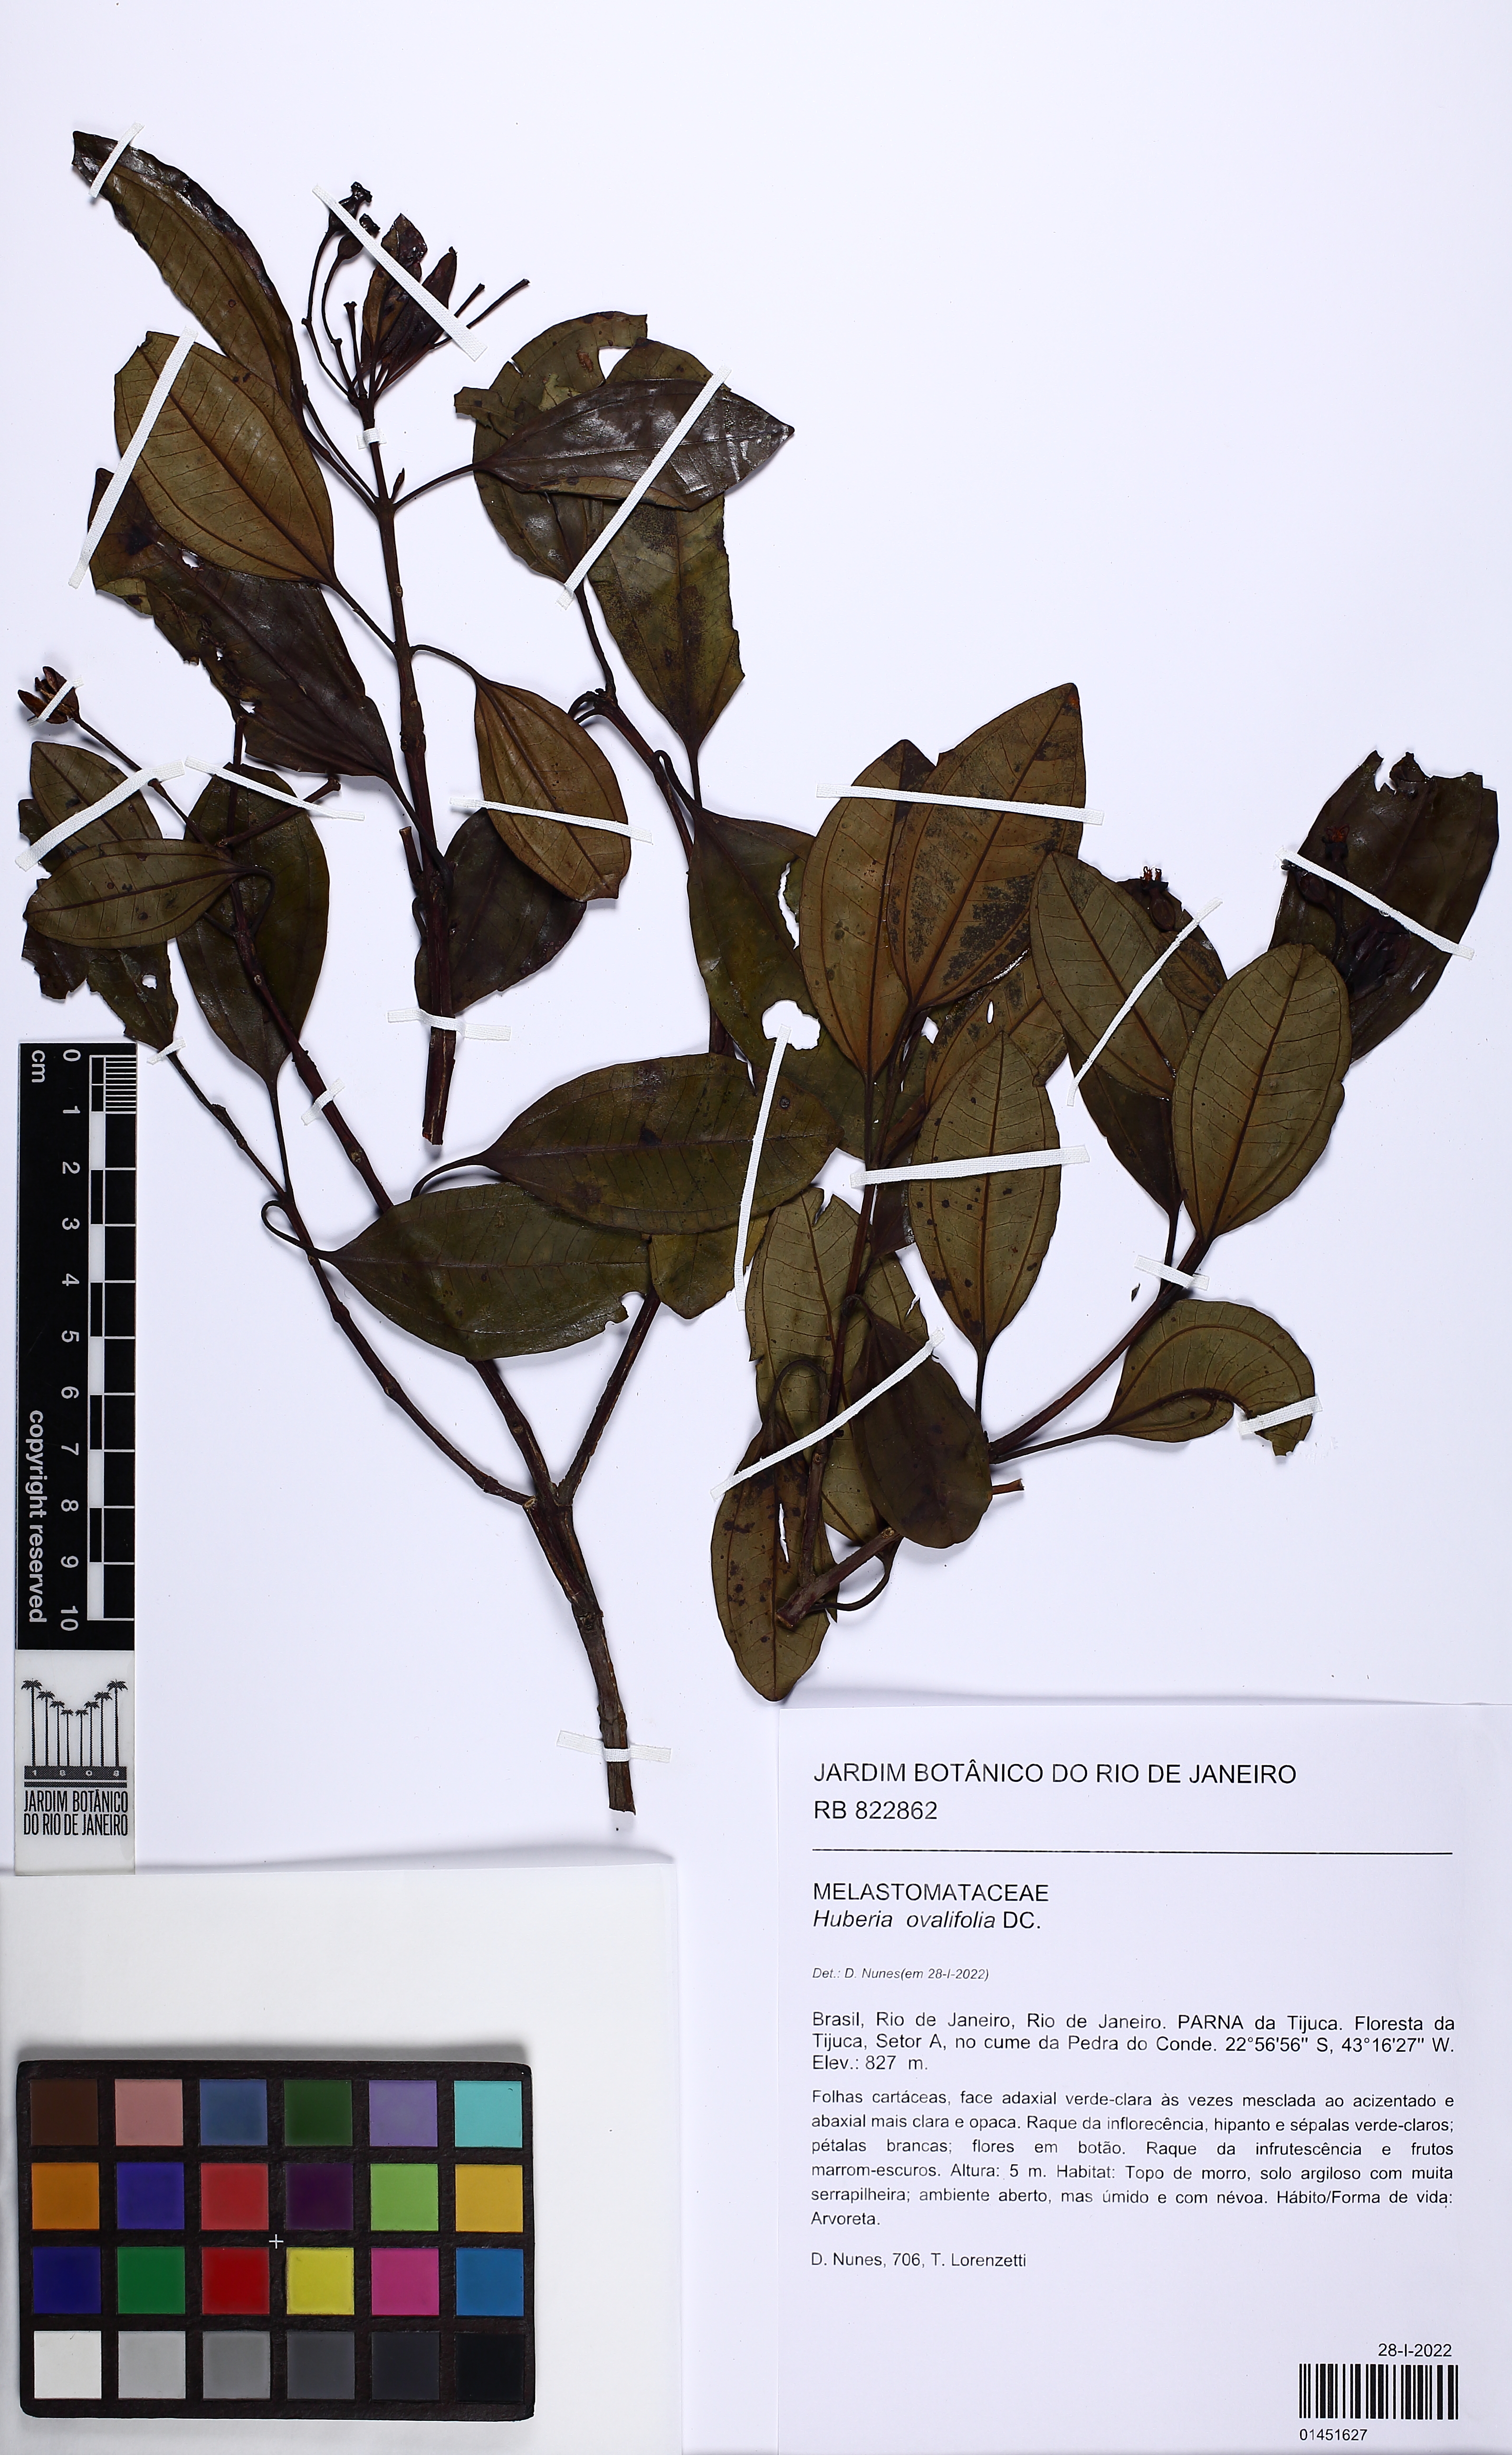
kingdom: Plantae
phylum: Tracheophyta
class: Magnoliopsida
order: Myrtales
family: Melastomataceae
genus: Huberia
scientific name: Huberia ovalifolia
